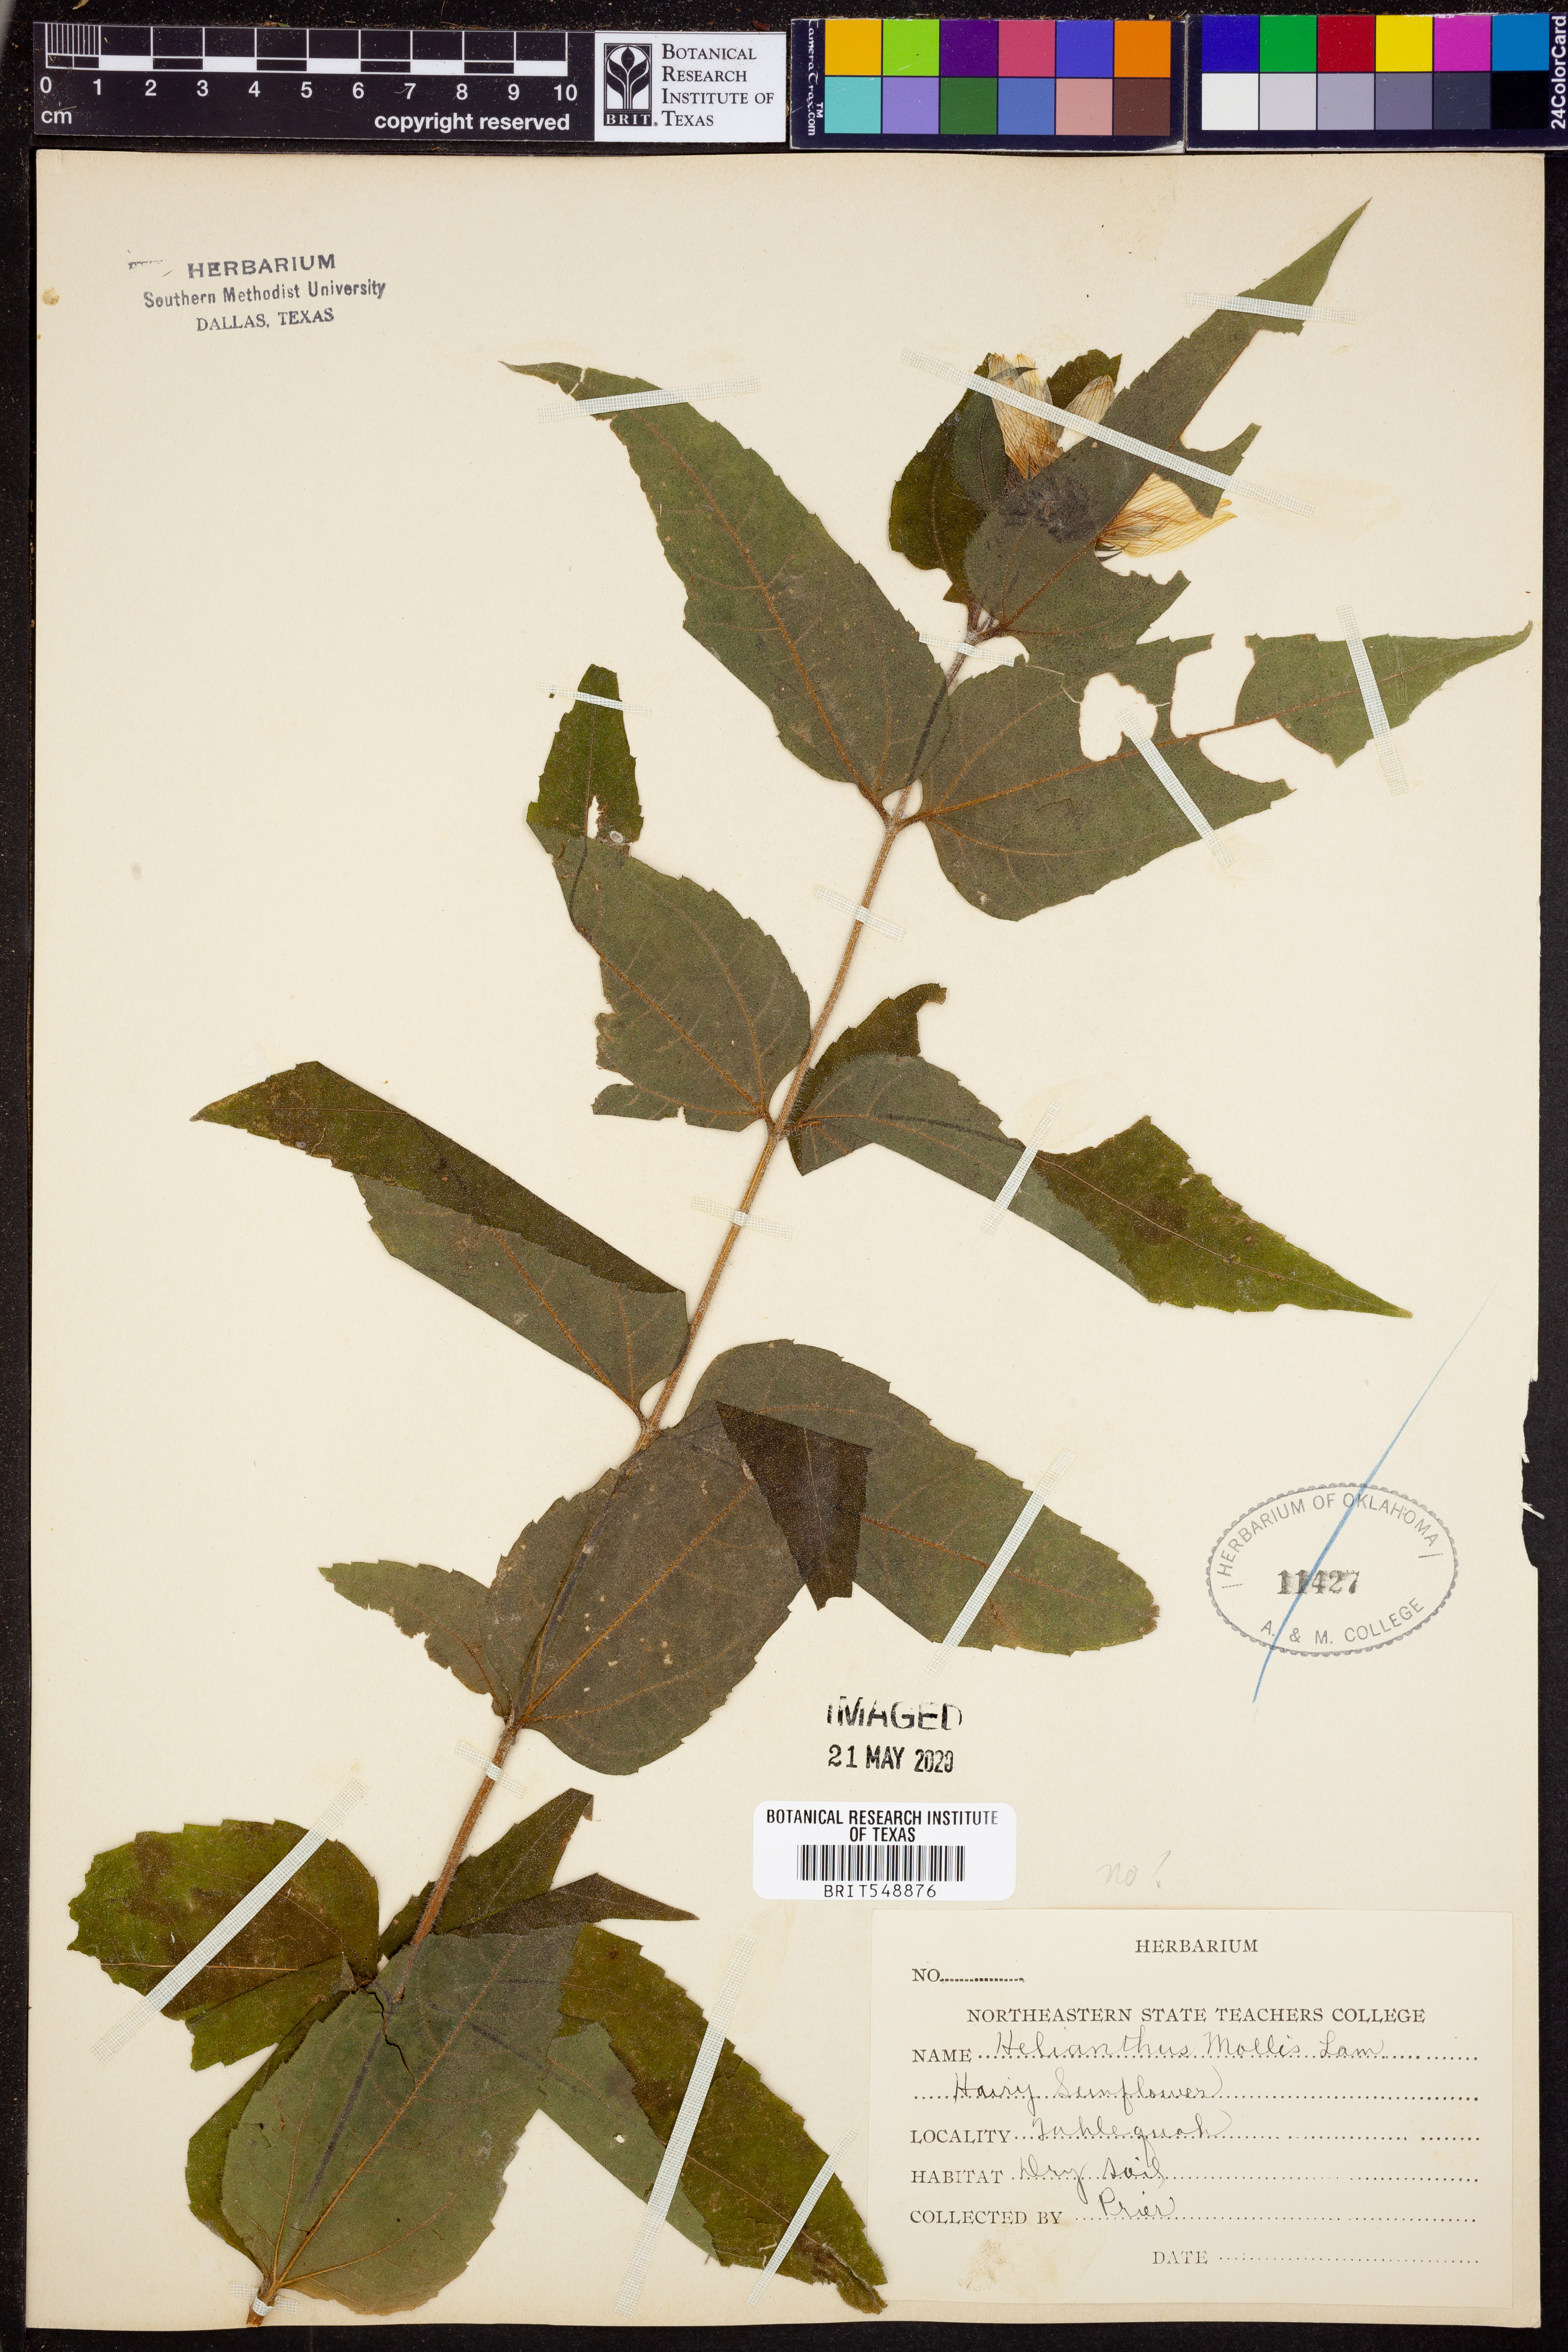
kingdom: Plantae
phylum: Tracheophyta
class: Magnoliopsida
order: Asterales
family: Asteraceae
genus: Helianthus
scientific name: Helianthus mollis
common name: Ashy sunflower
